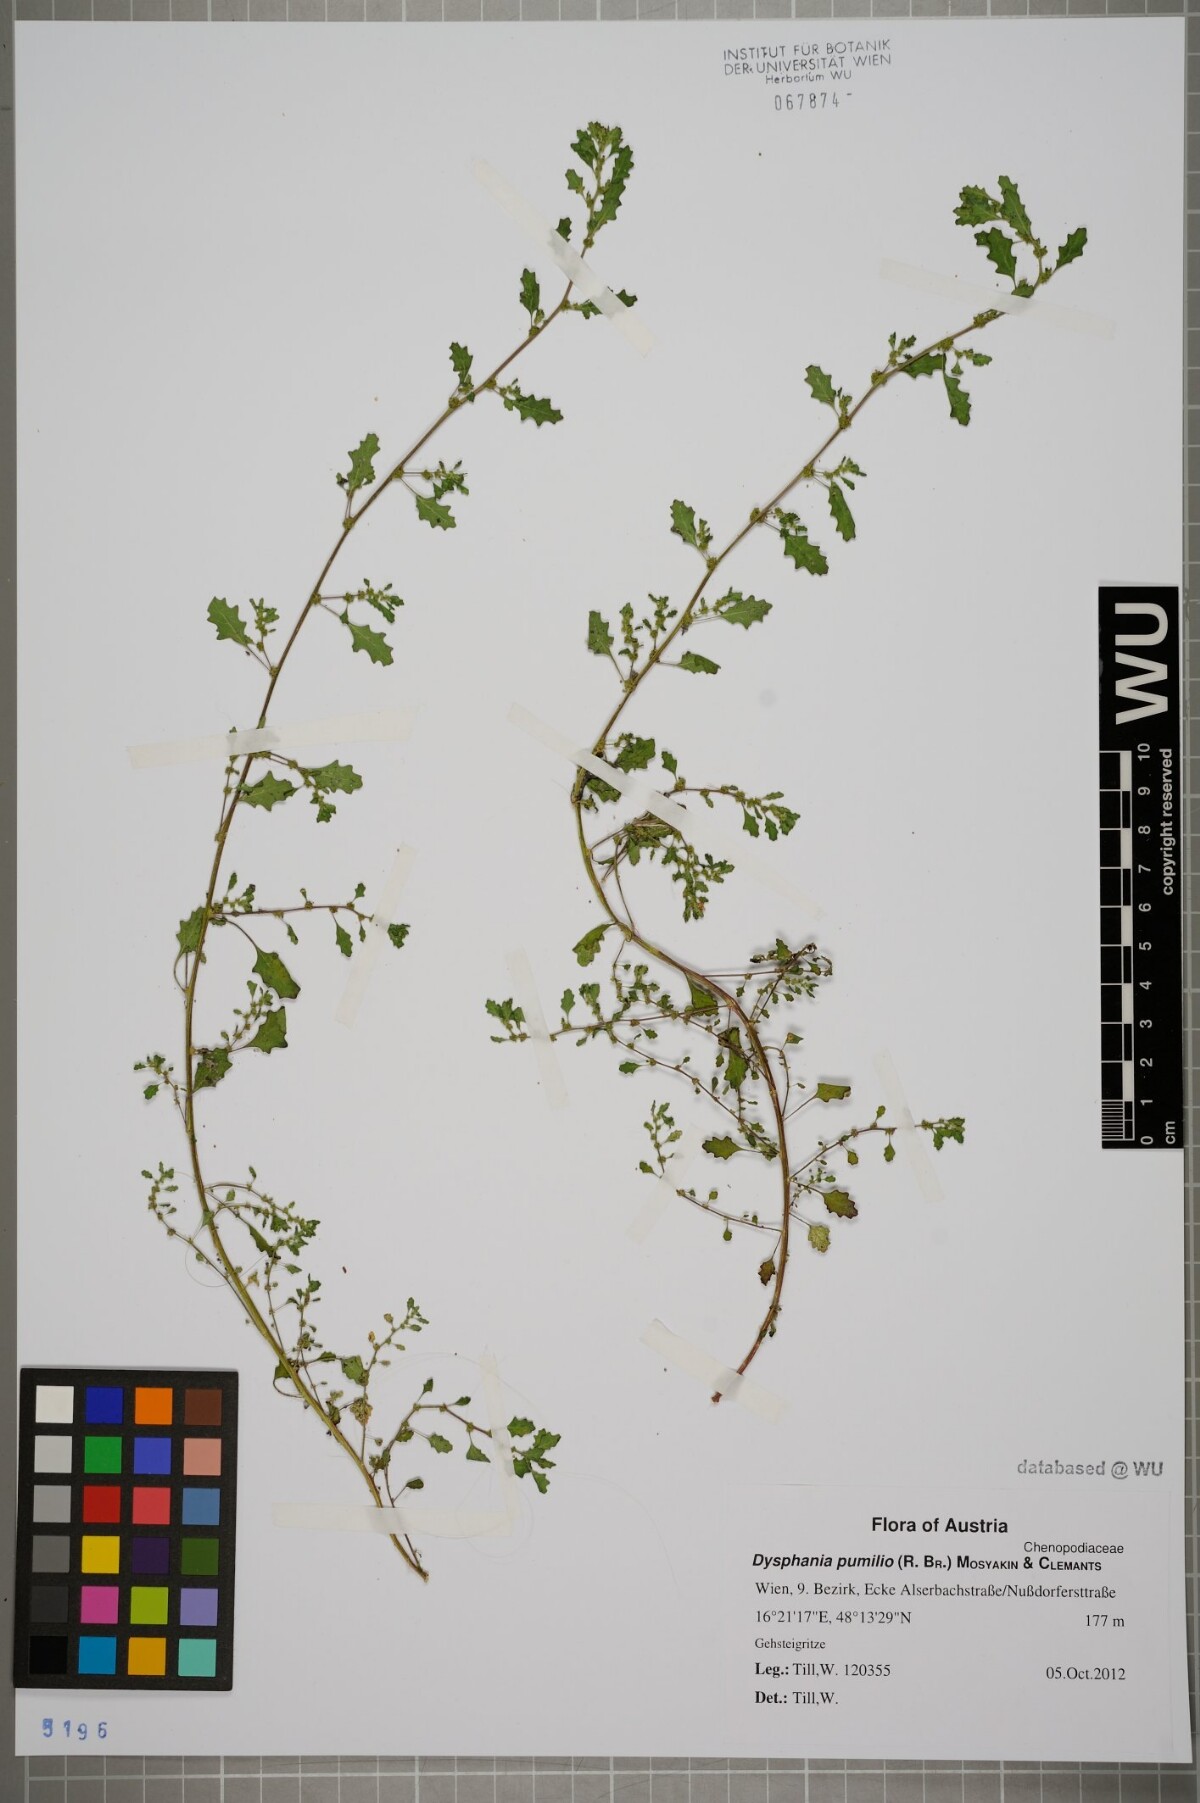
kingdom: Plantae
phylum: Tracheophyta
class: Magnoliopsida
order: Caryophyllales
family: Amaranthaceae
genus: Dysphania
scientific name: Dysphania pumilio
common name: Clammy goosefoot
